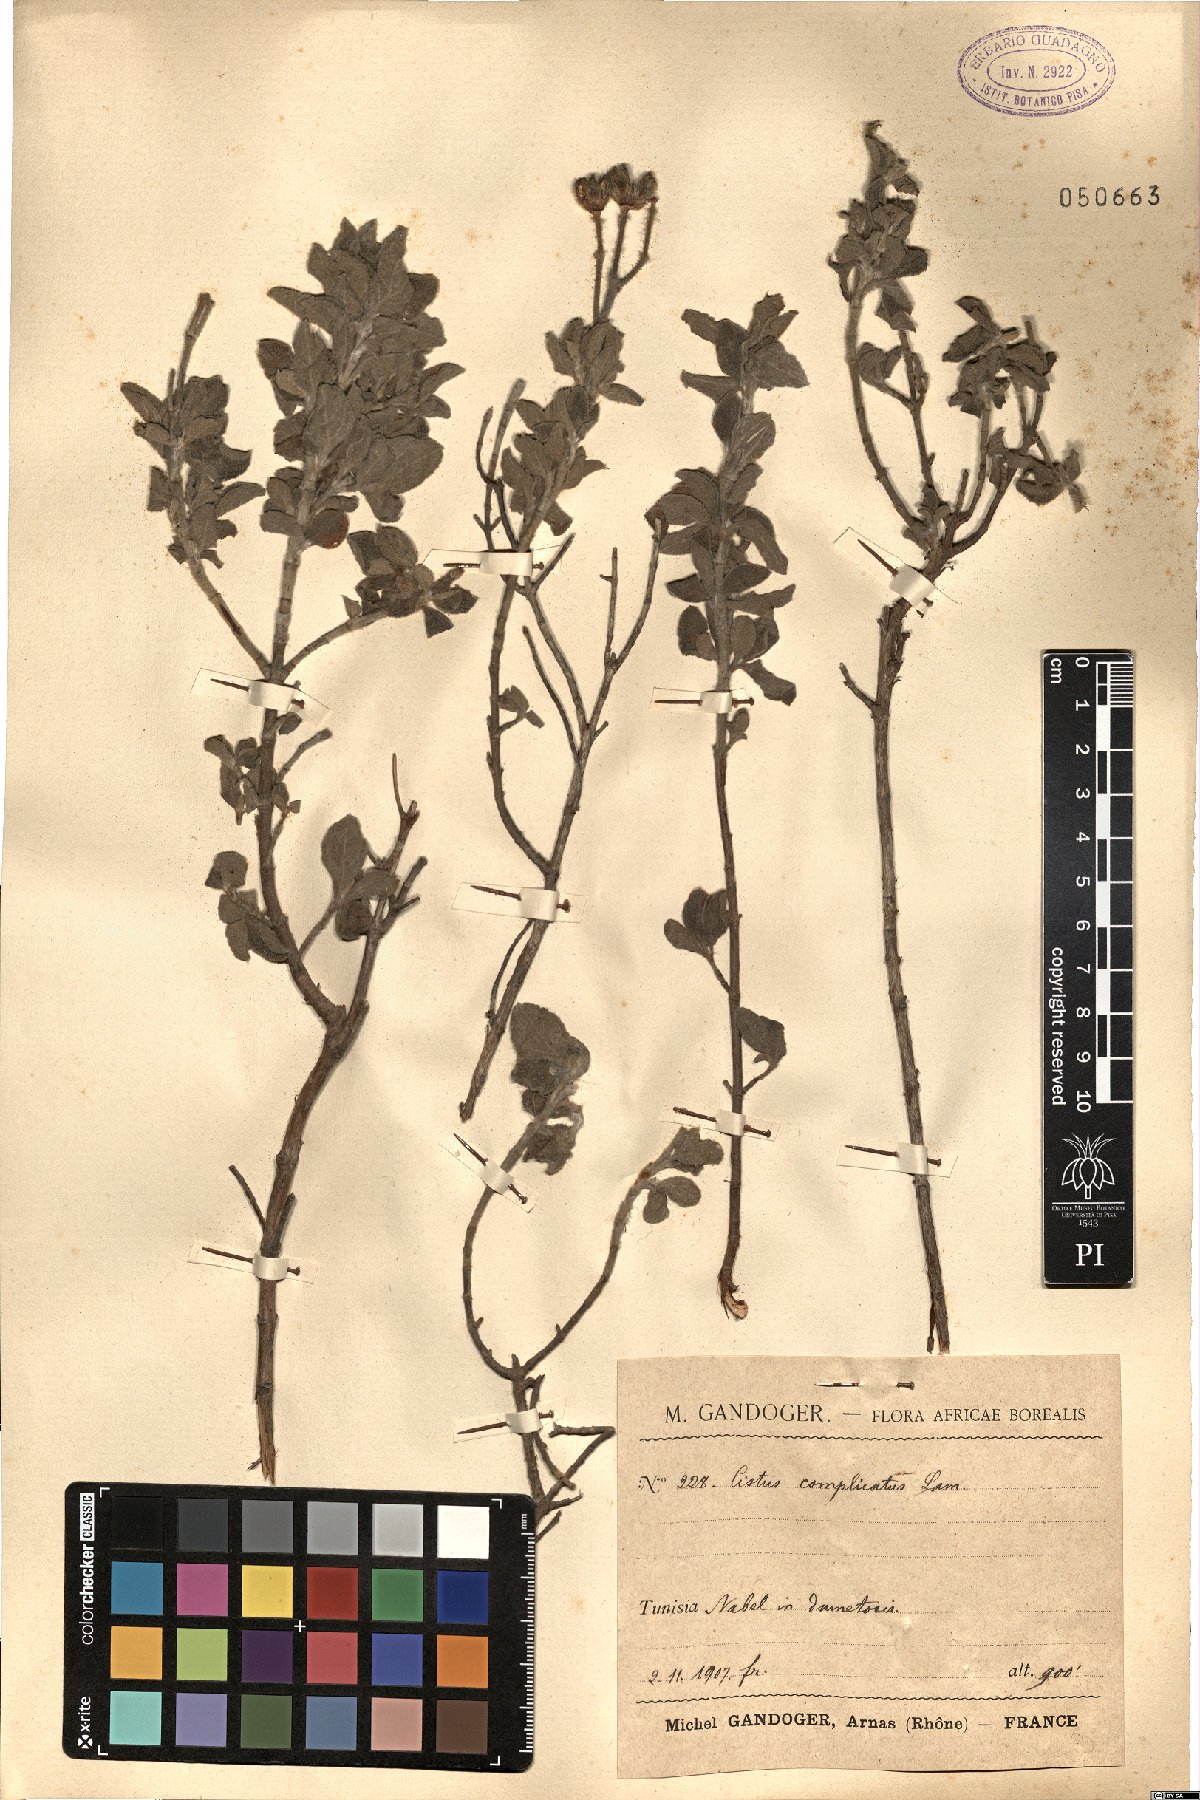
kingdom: Plantae
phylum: Tracheophyta
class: Magnoliopsida
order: Malvales
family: Cistaceae
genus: Cistus
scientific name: Cistus parviflorus
